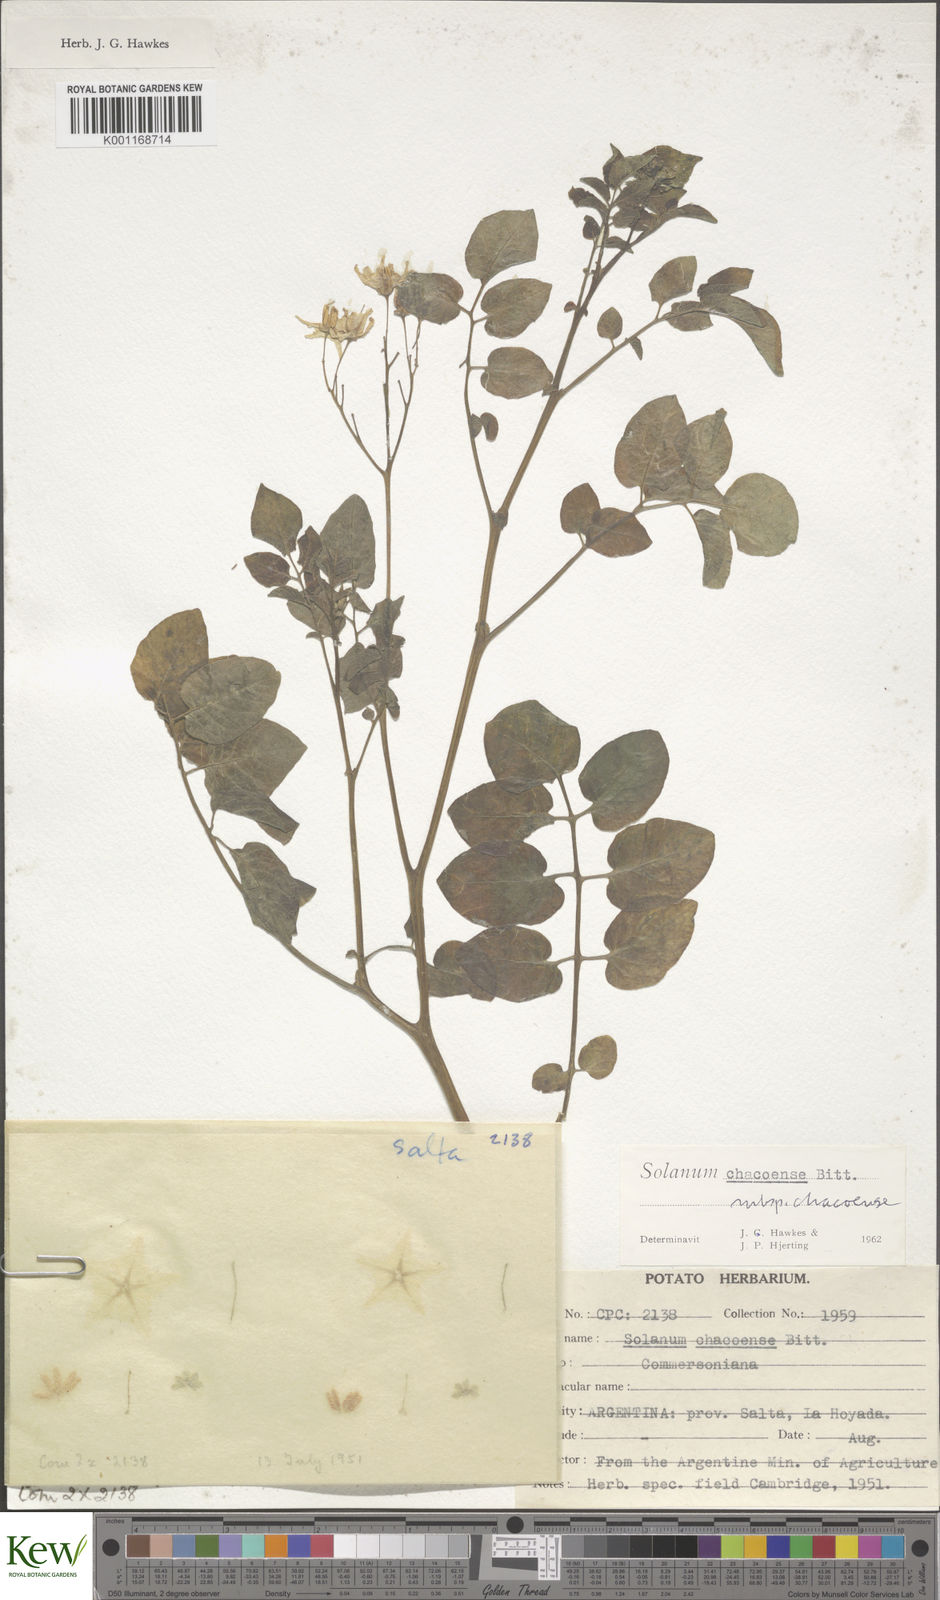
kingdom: Plantae
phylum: Tracheophyta
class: Magnoliopsida
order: Solanales
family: Solanaceae
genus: Solanum
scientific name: Solanum chacoense
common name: Chaco potato
